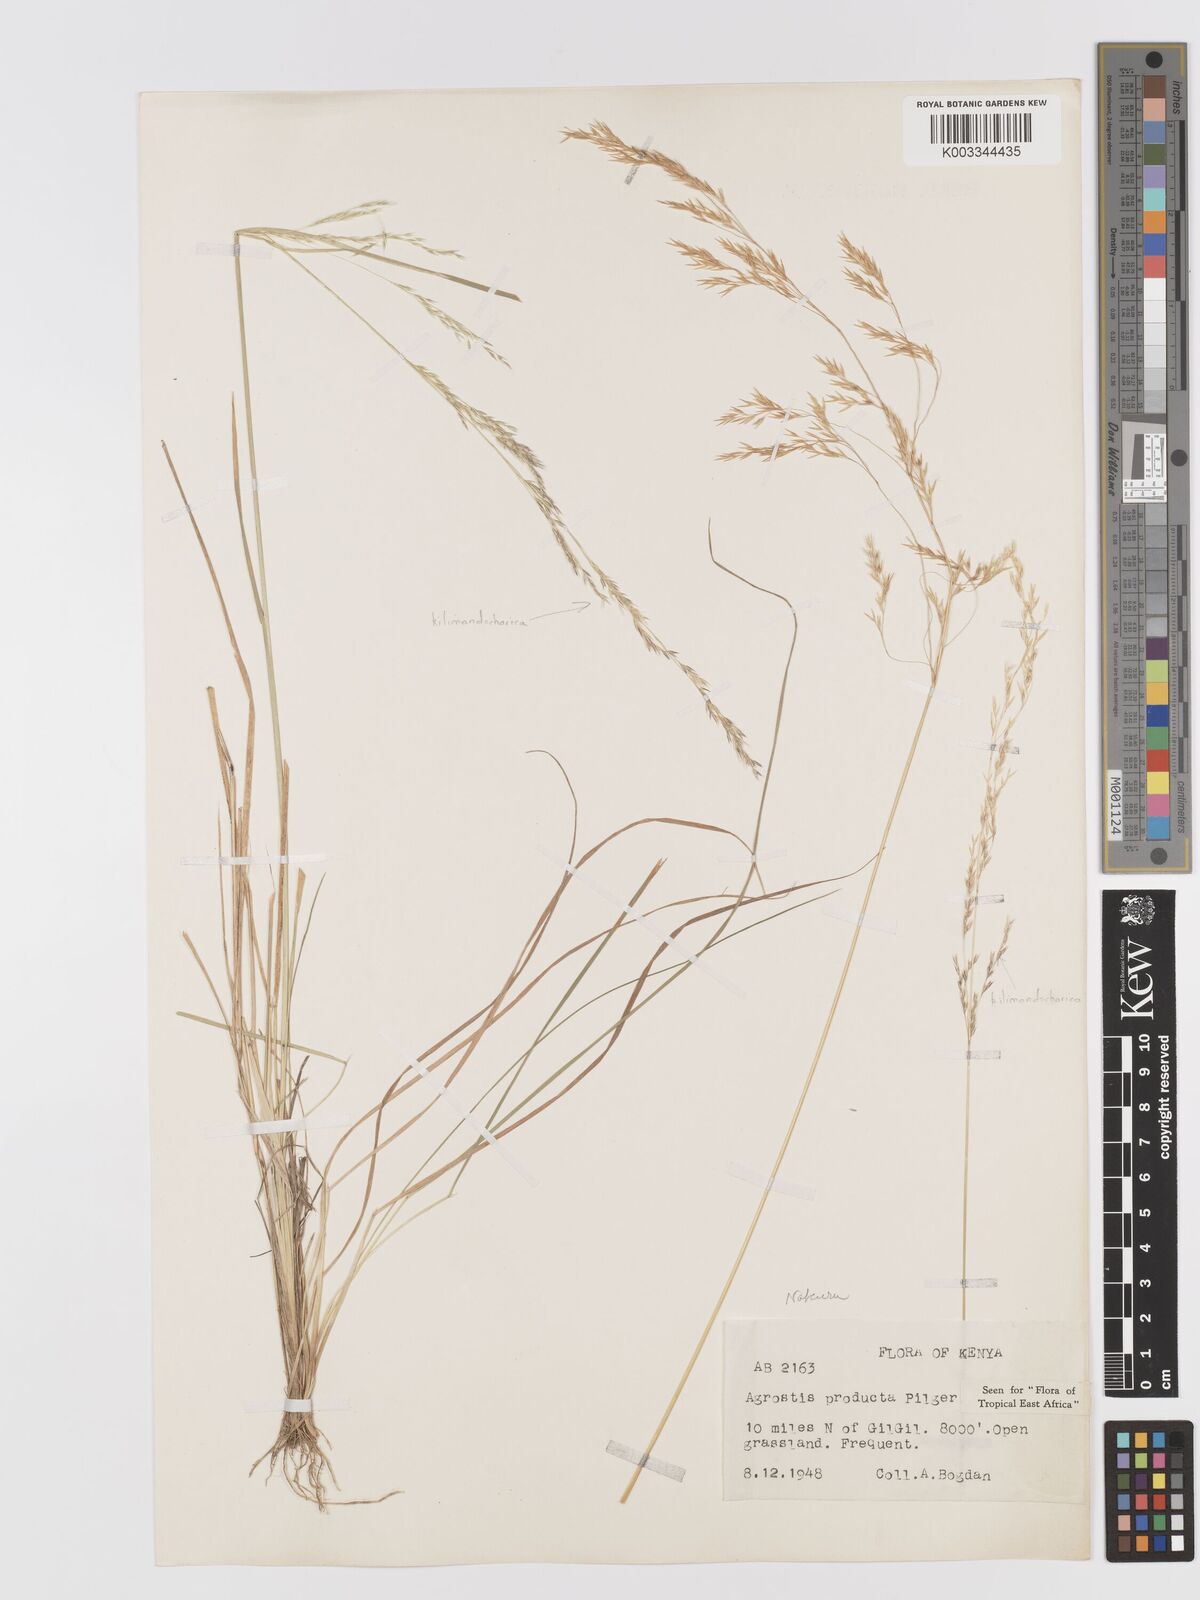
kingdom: Plantae
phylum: Tracheophyta
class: Liliopsida
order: Poales
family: Poaceae
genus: Agrostis
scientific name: Agrostis producta
